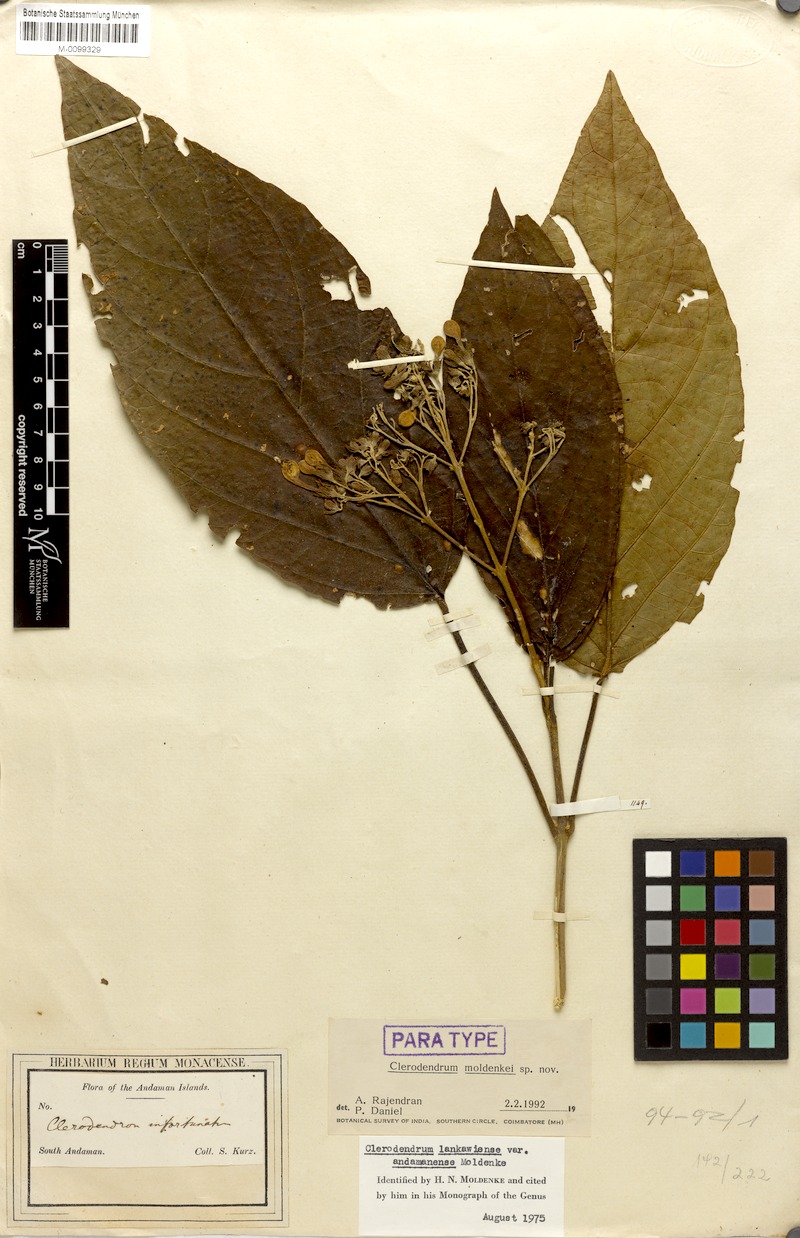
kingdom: Plantae
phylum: Tracheophyta
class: Magnoliopsida
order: Lamiales
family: Lamiaceae
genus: Clerodendrum
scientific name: Clerodendrum lankawiense
